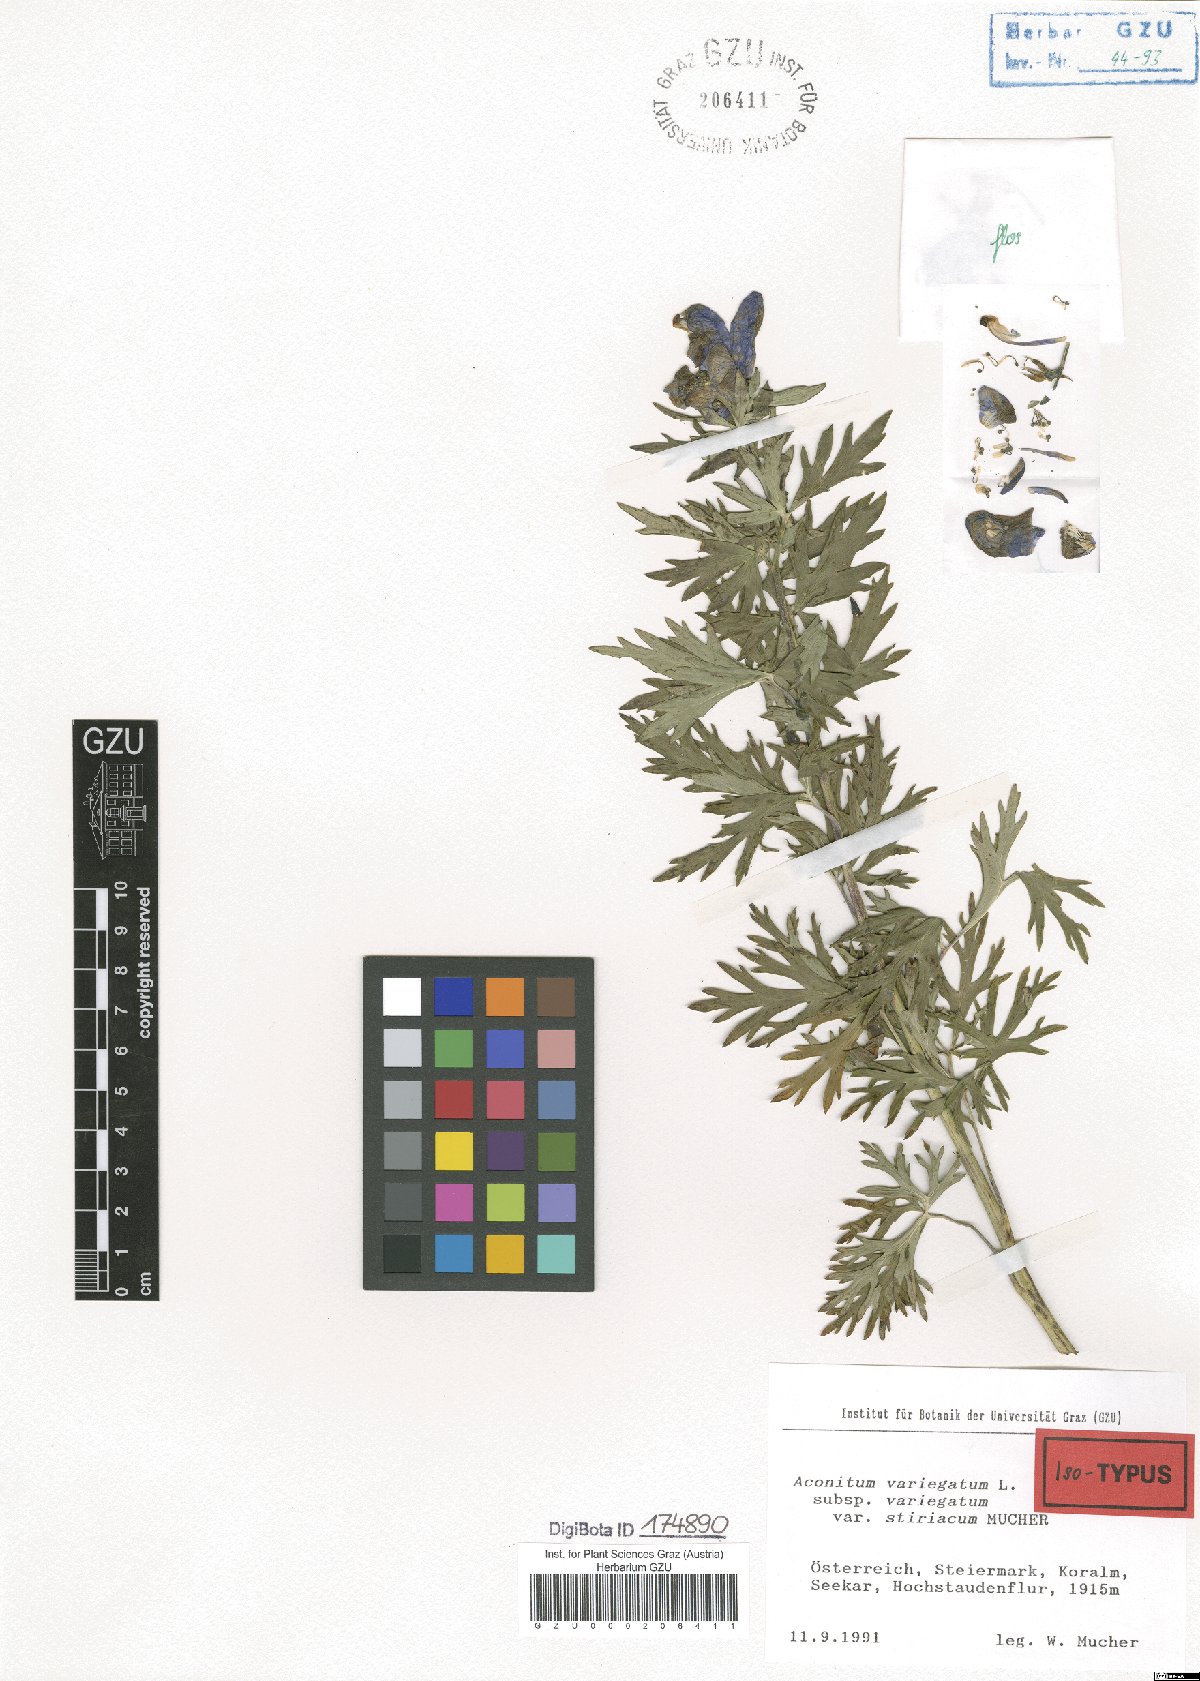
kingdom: Plantae
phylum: Tracheophyta
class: Magnoliopsida
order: Ranunculales
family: Ranunculaceae
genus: Aconitum
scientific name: Aconitum variegatum
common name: Manchurian monkshood
